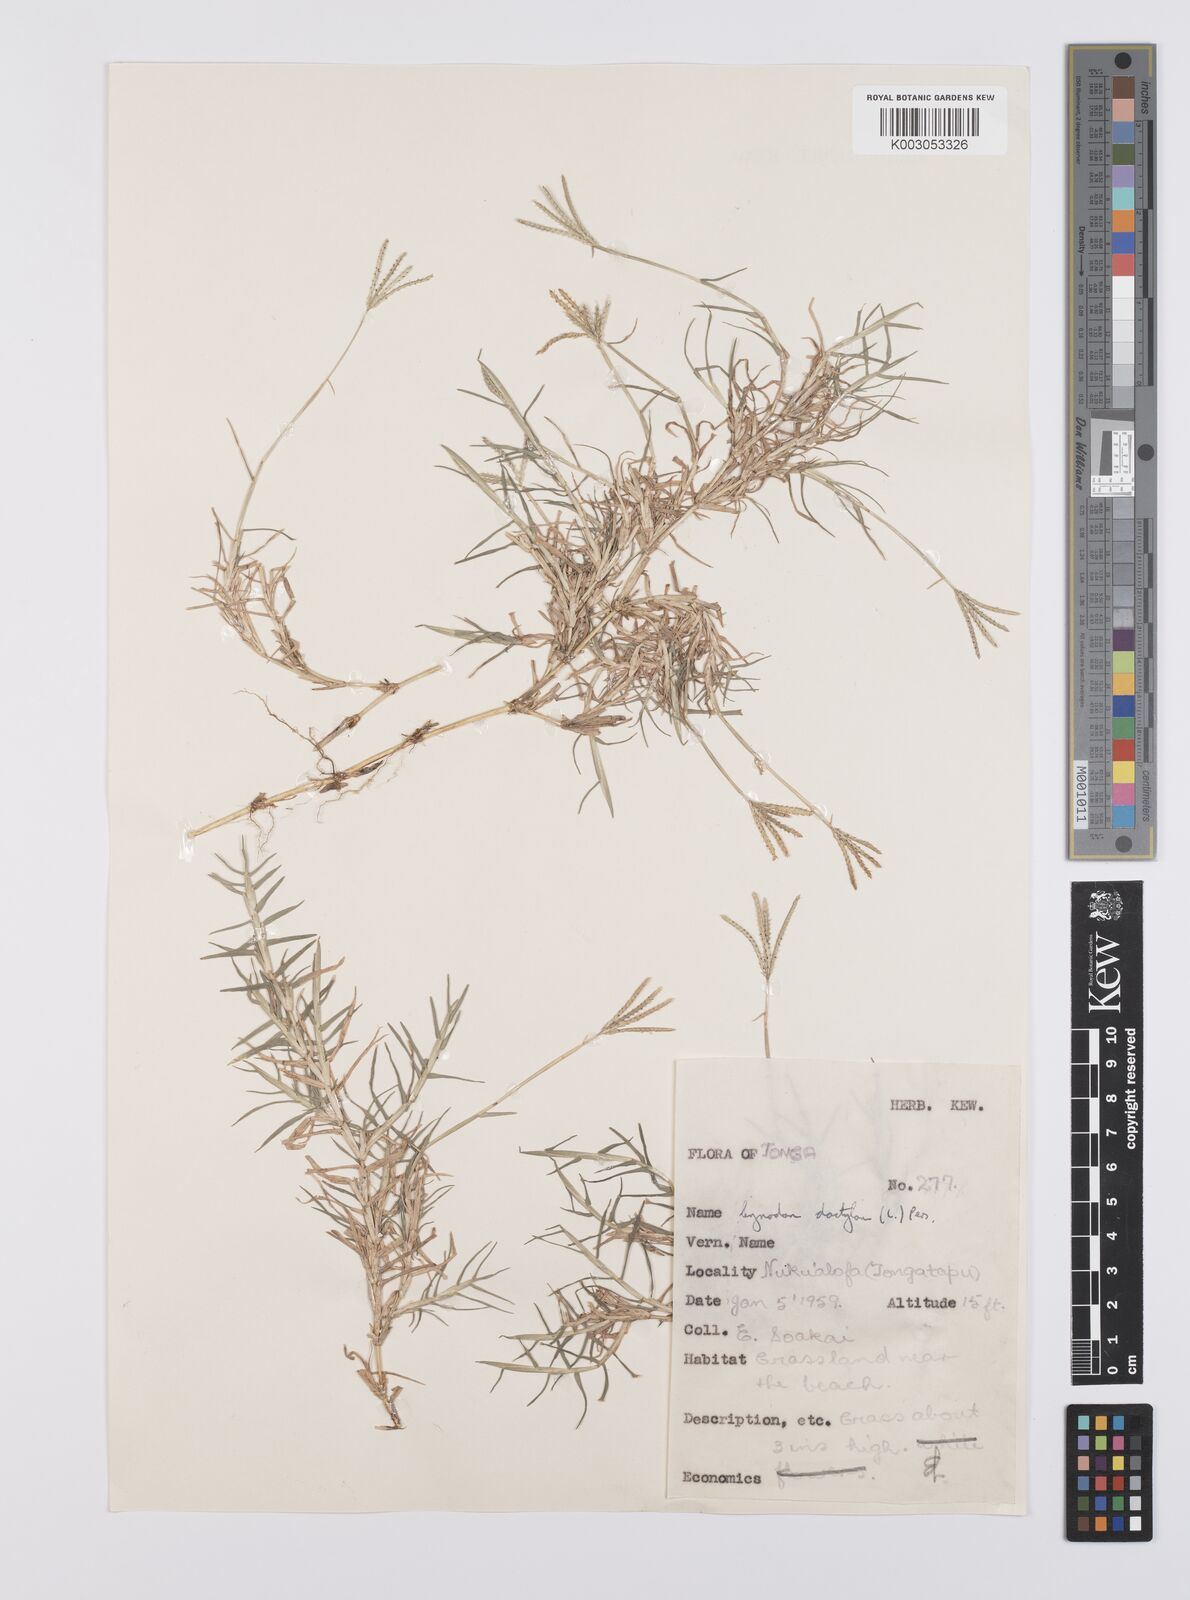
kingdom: Plantae
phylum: Tracheophyta
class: Liliopsida
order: Poales
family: Poaceae
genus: Cynodon
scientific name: Cynodon dactylon
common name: Bermuda grass
